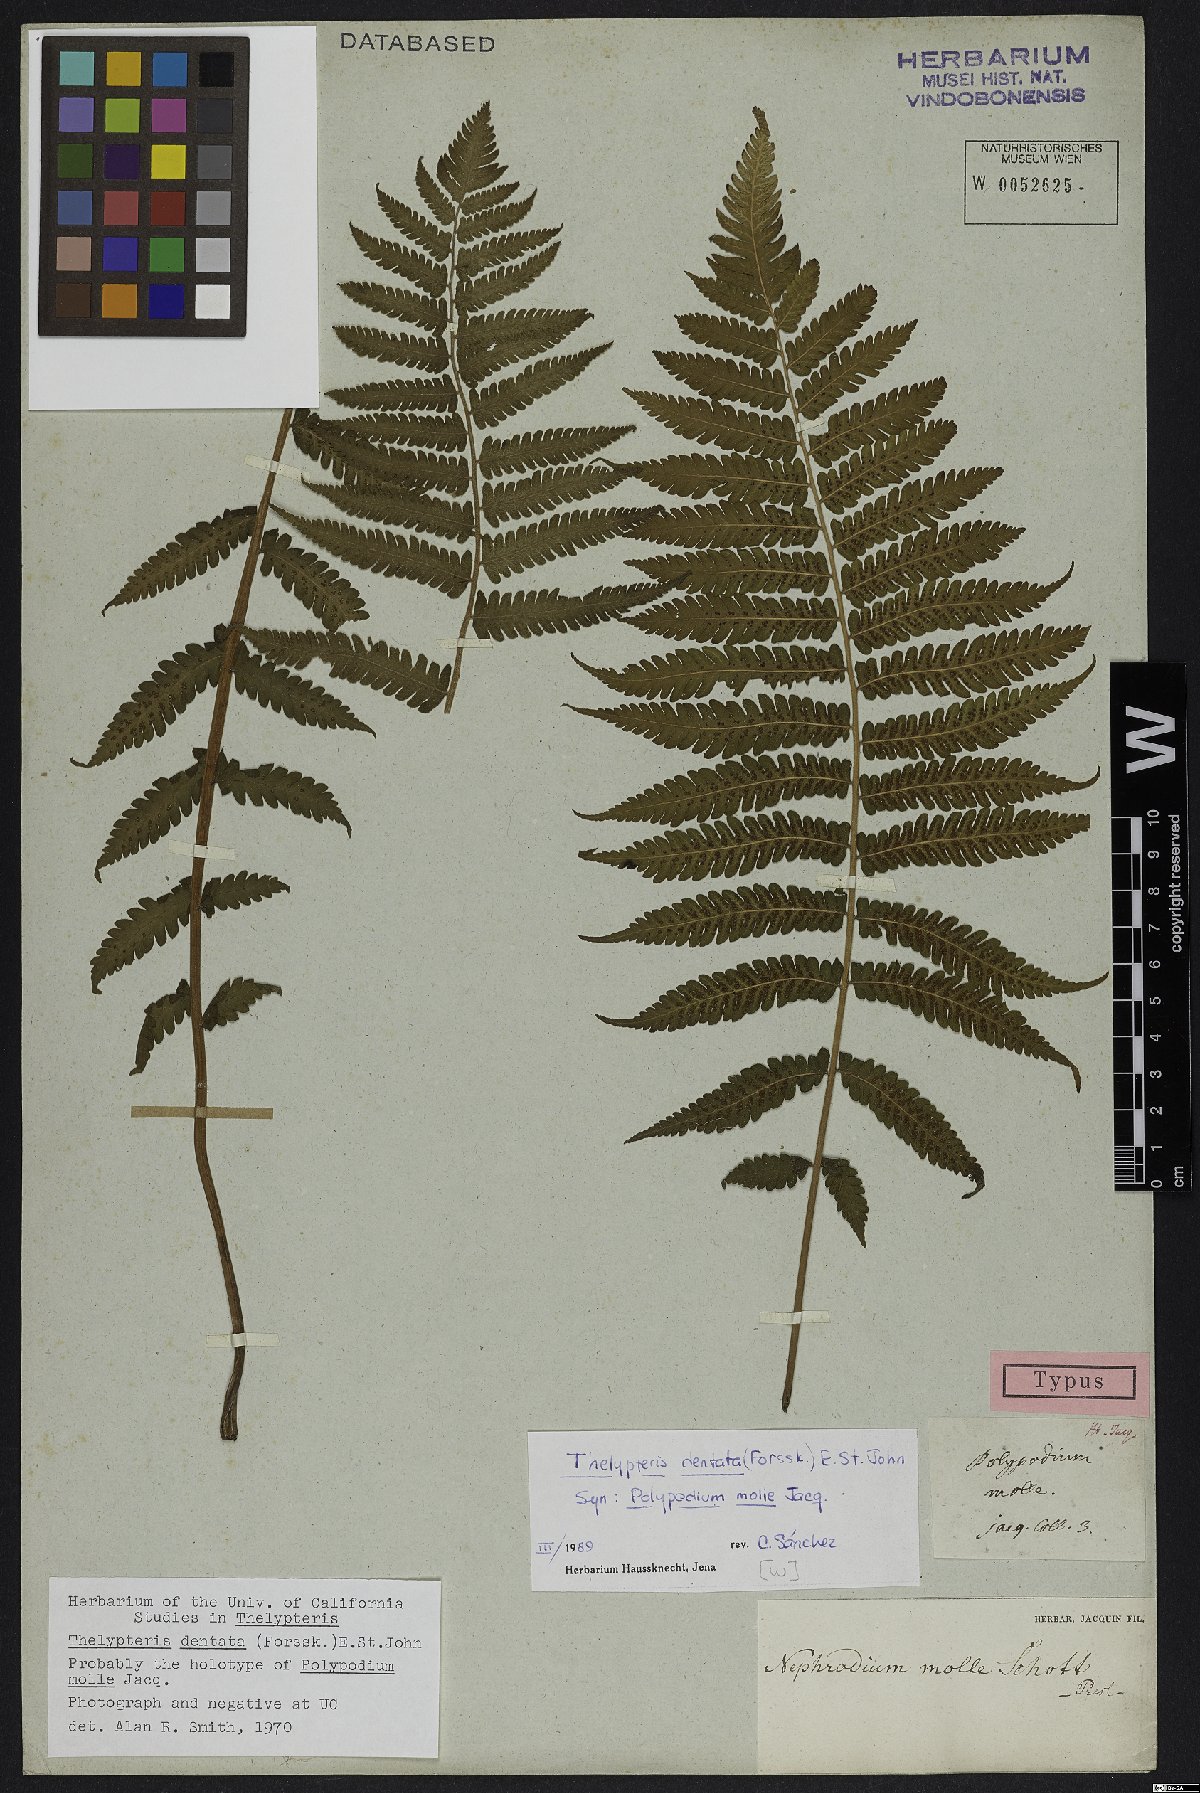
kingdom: Plantae
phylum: Tracheophyta
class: Polypodiopsida
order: Polypodiales
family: Thelypteridaceae
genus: Christella
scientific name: Christella dentata
